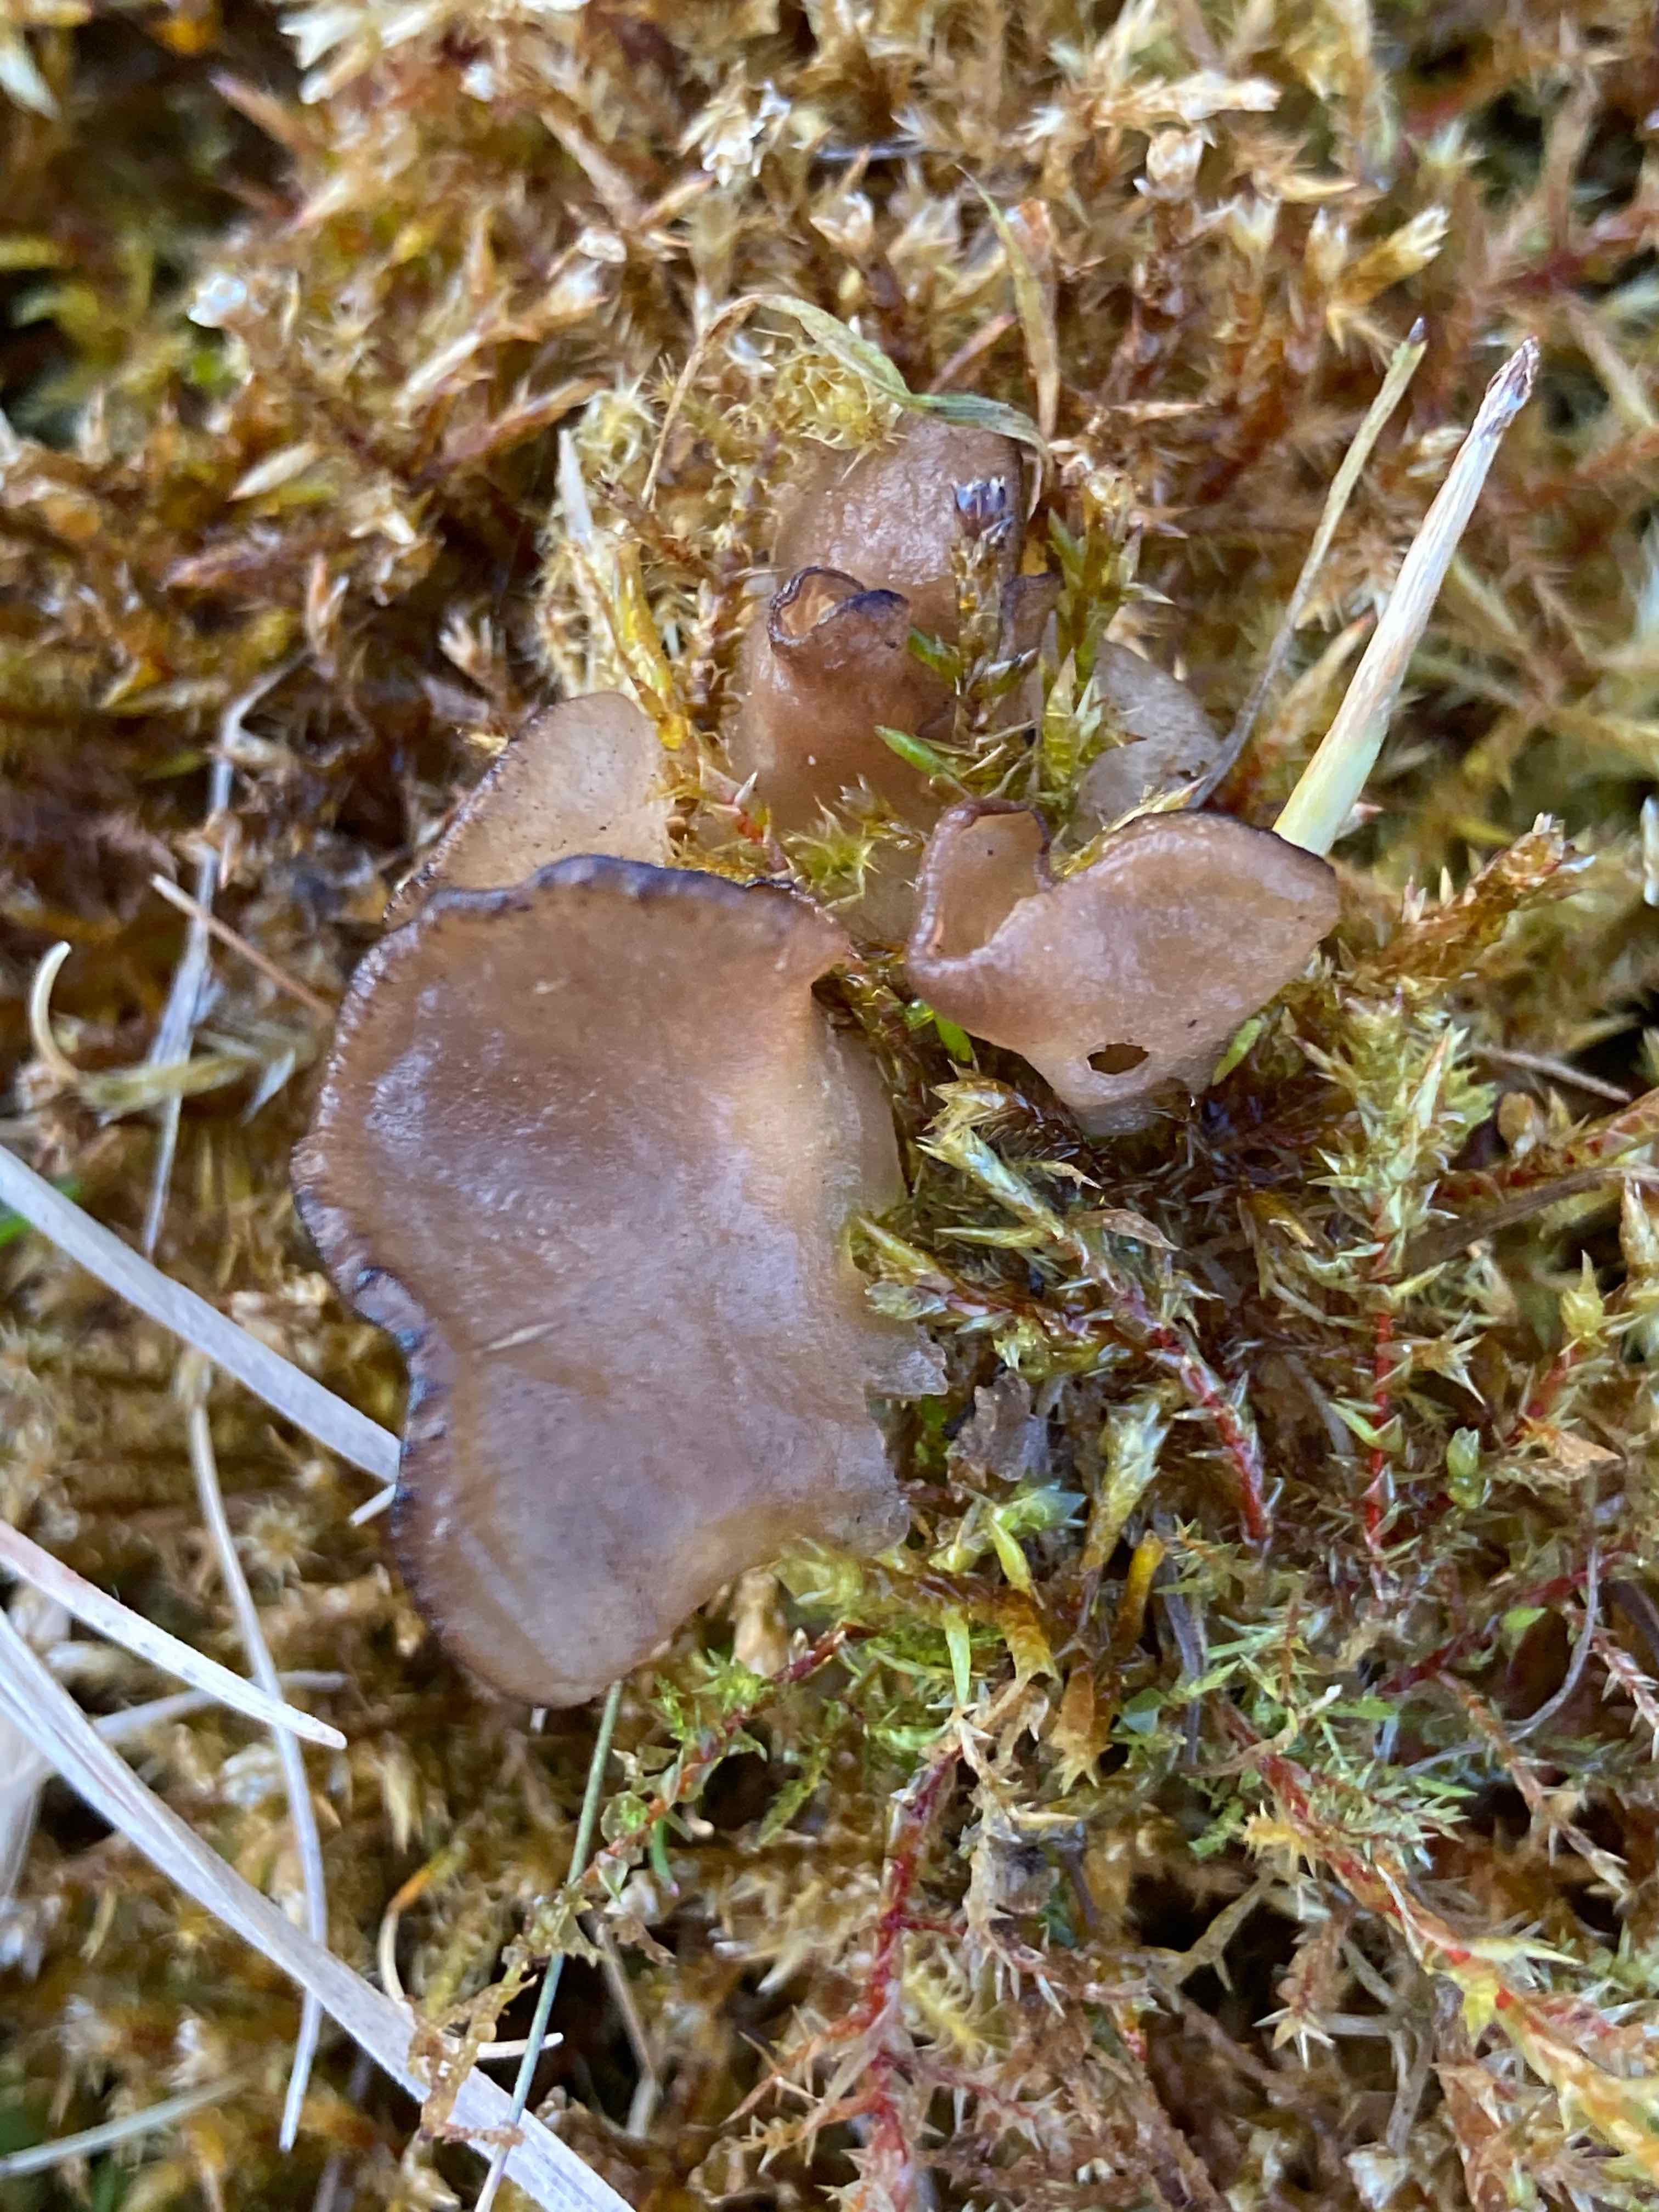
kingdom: Fungi
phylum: Basidiomycota
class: Agaricomycetes
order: Agaricales
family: Hygrophoraceae
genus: Arrhenia
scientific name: Arrhenia lobata
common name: siddende fontænehat
